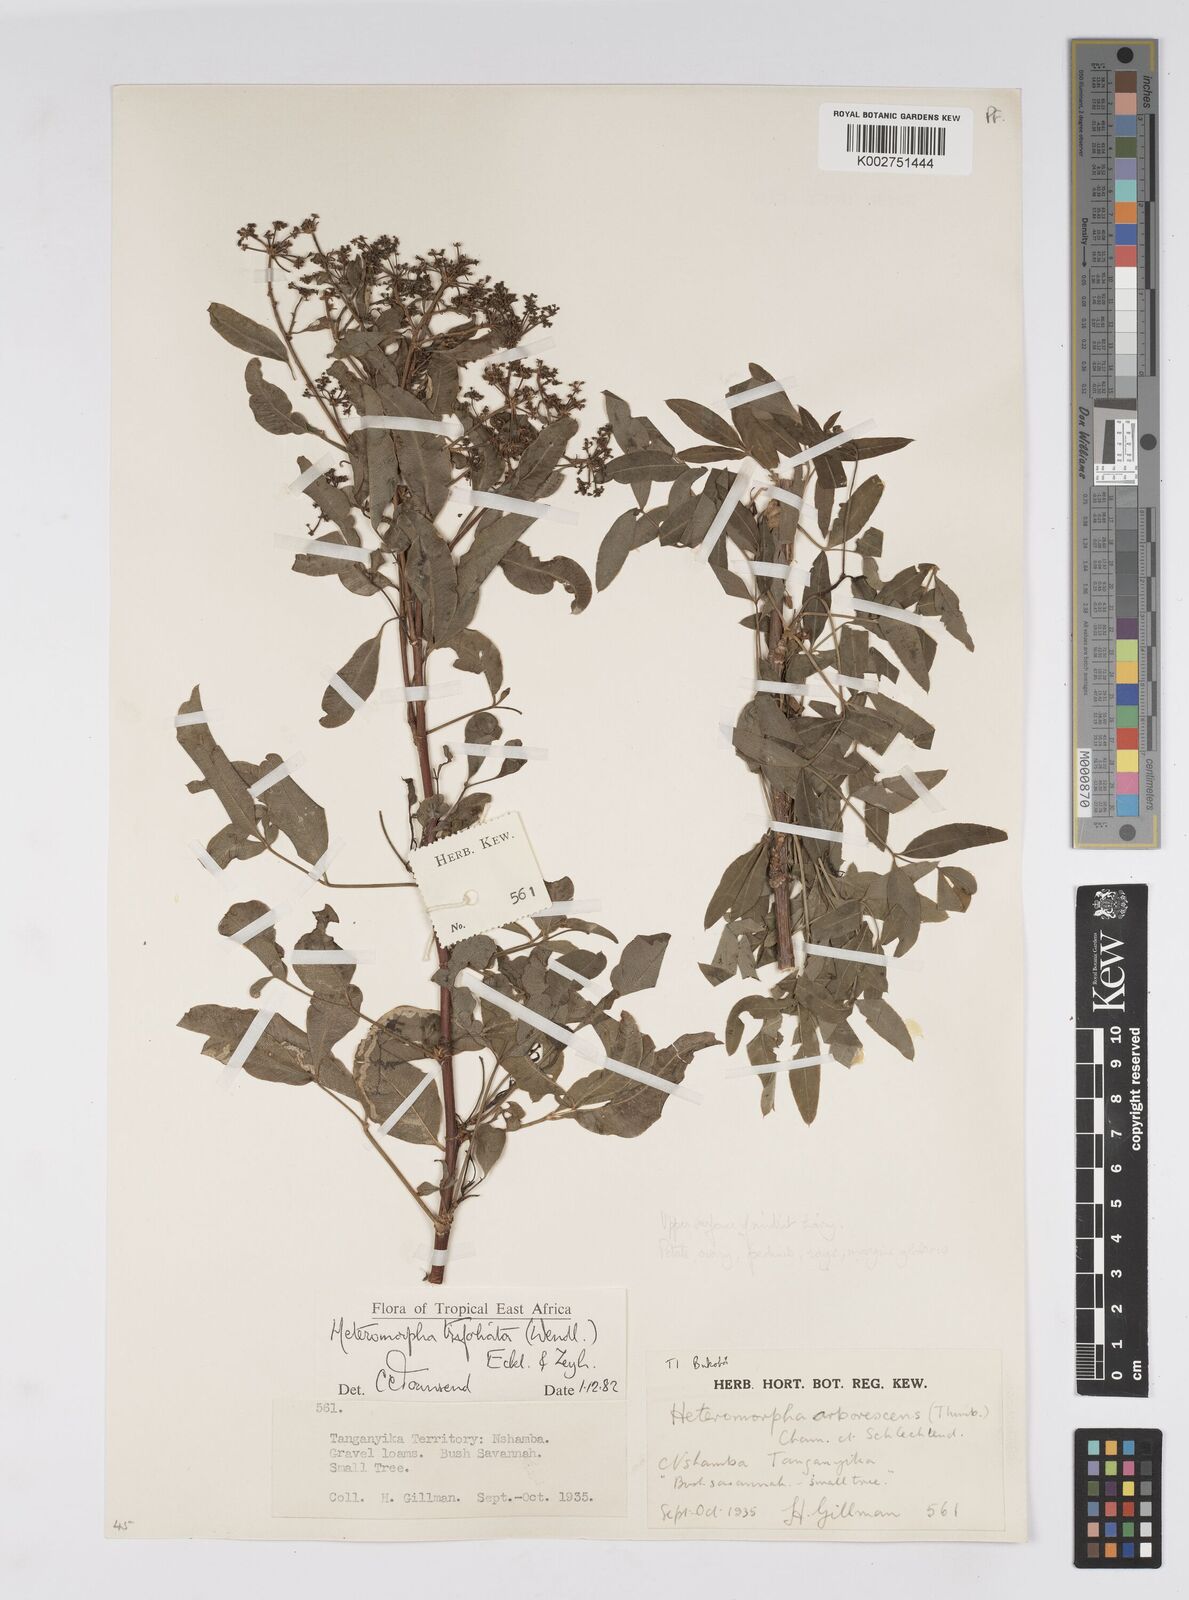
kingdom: Plantae
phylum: Tracheophyta
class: Magnoliopsida
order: Apiales
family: Apiaceae
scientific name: Apiaceae
